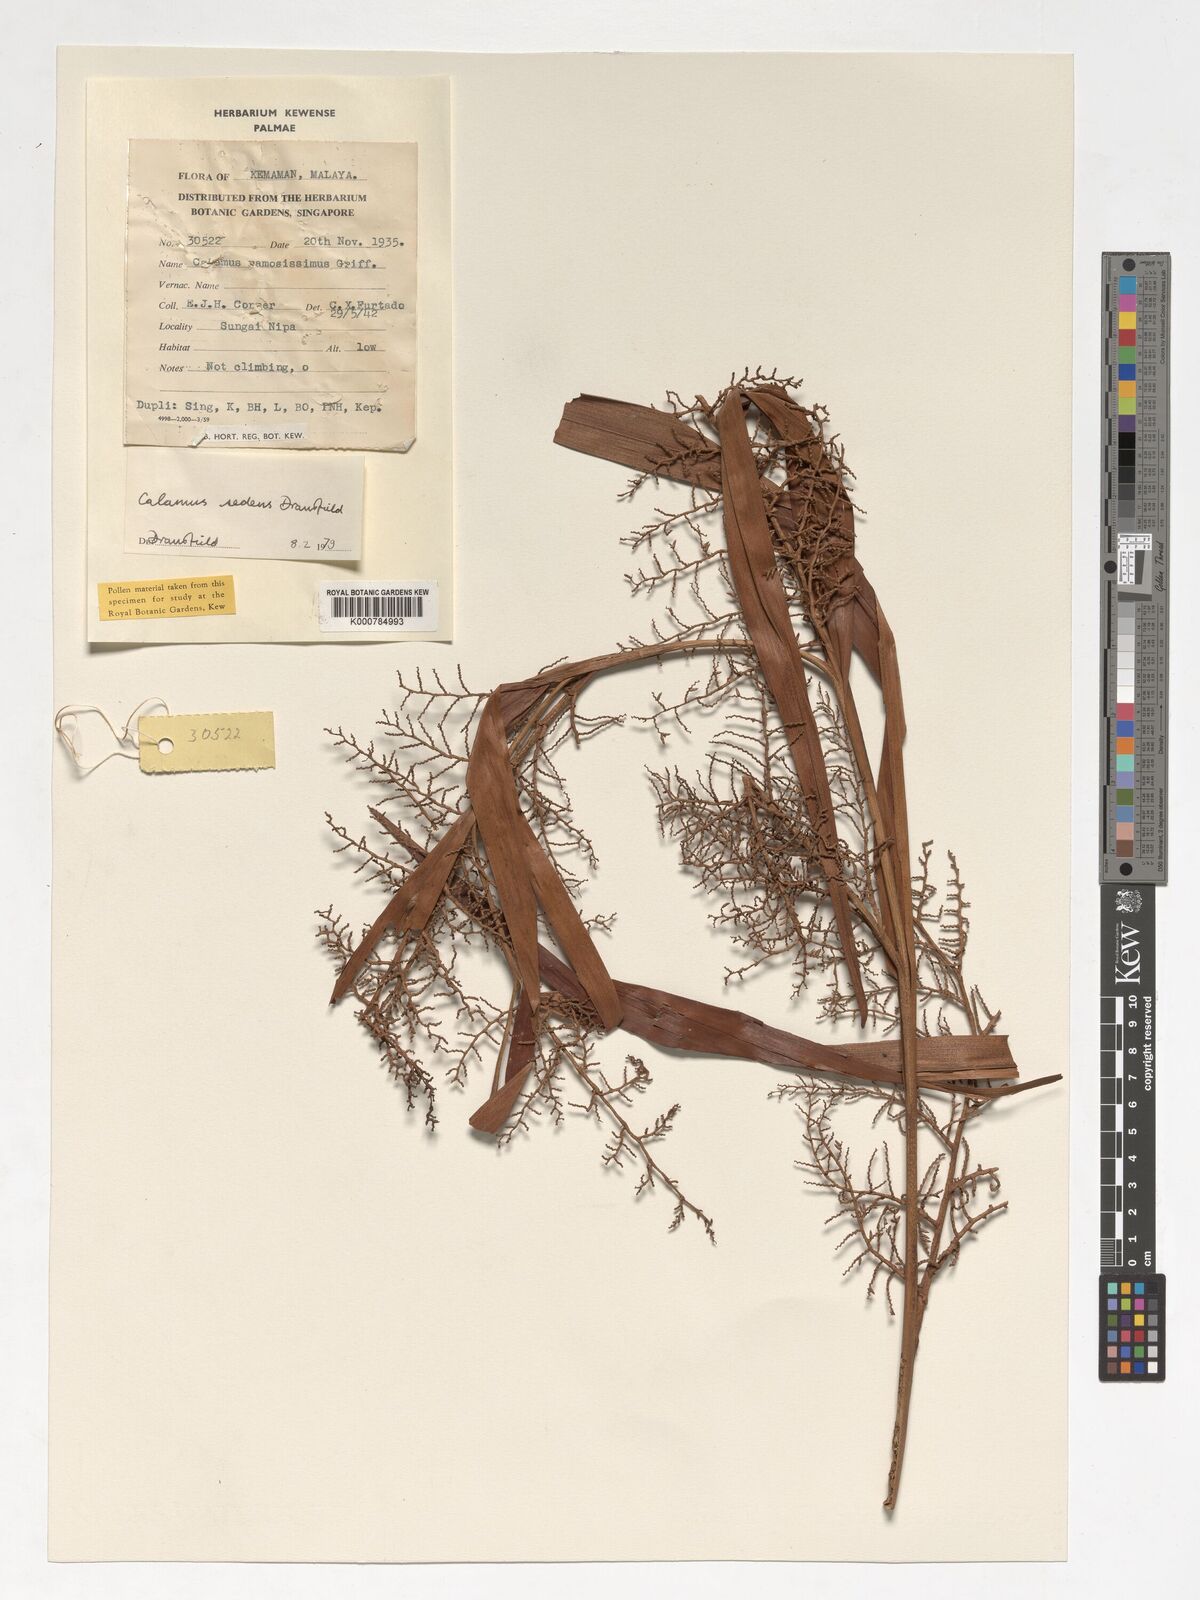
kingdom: Plantae
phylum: Tracheophyta
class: Liliopsida
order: Arecales
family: Arecaceae
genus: Calamus
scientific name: Calamus sedens
